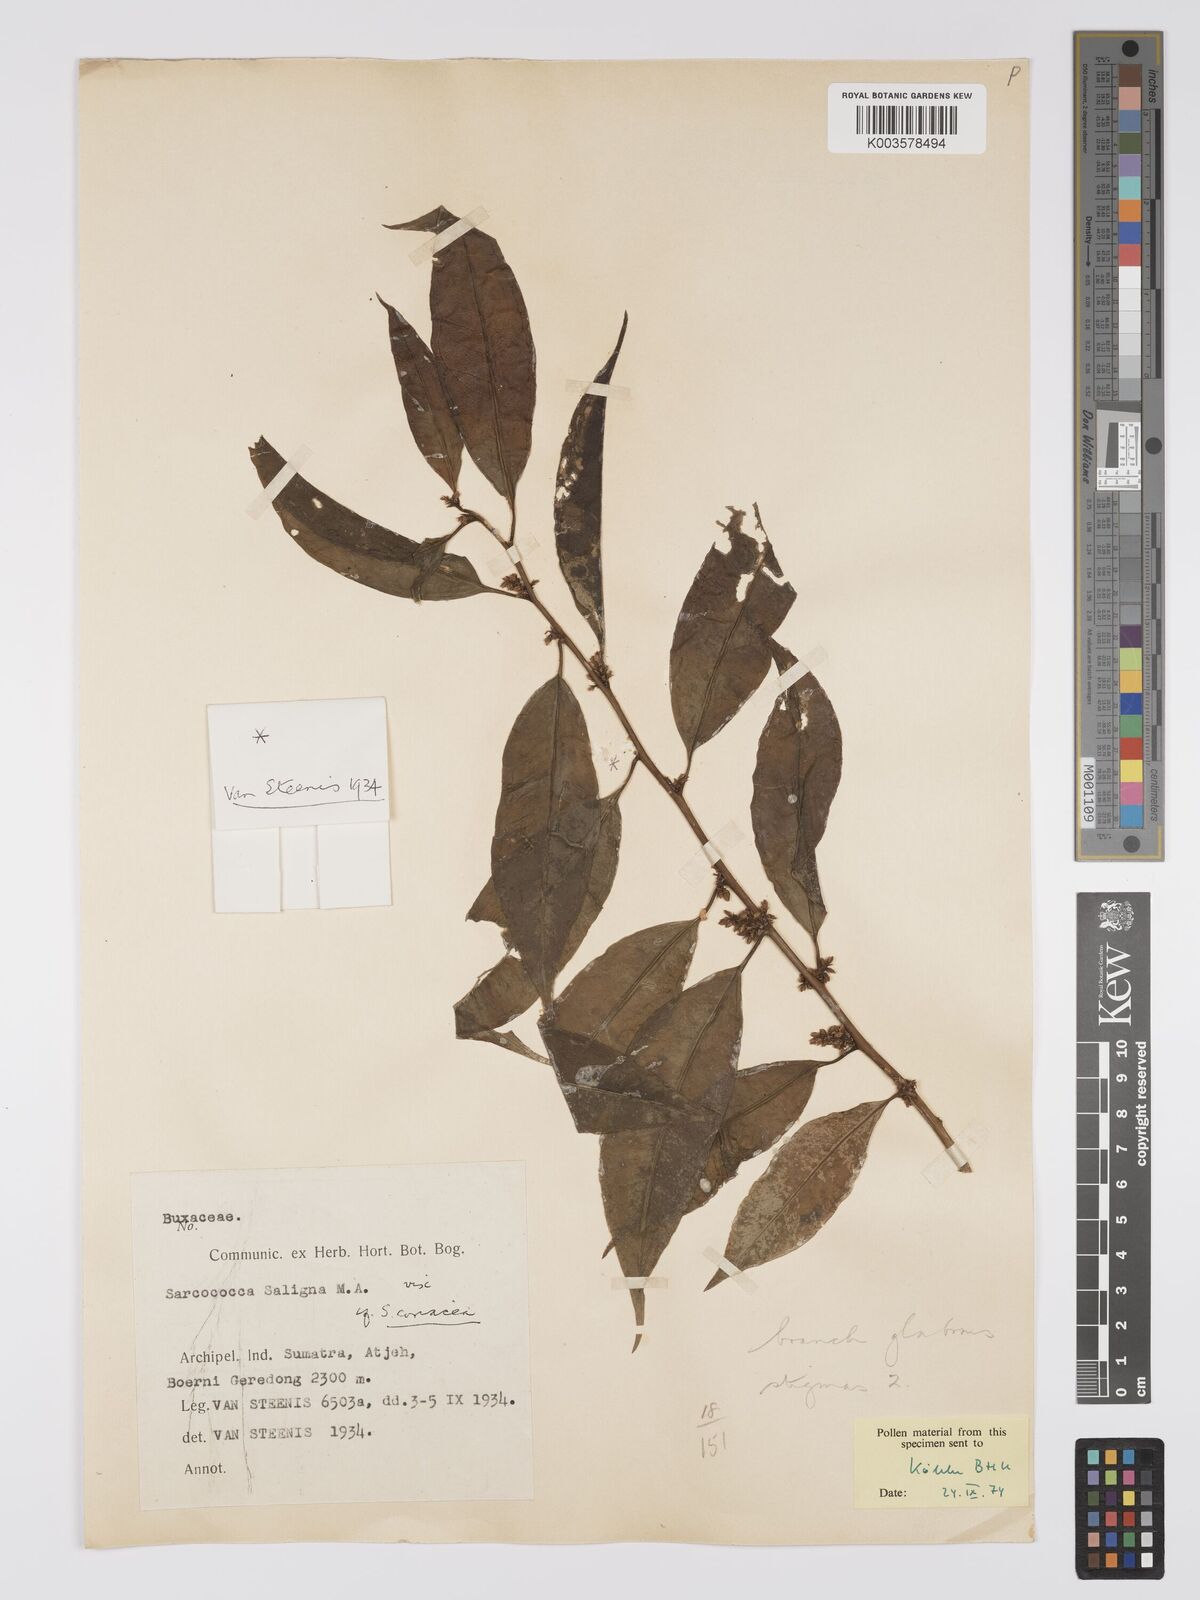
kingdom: Plantae
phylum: Tracheophyta
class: Magnoliopsida
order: Buxales
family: Buxaceae
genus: Sarcococca
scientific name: Sarcococca coriacea
